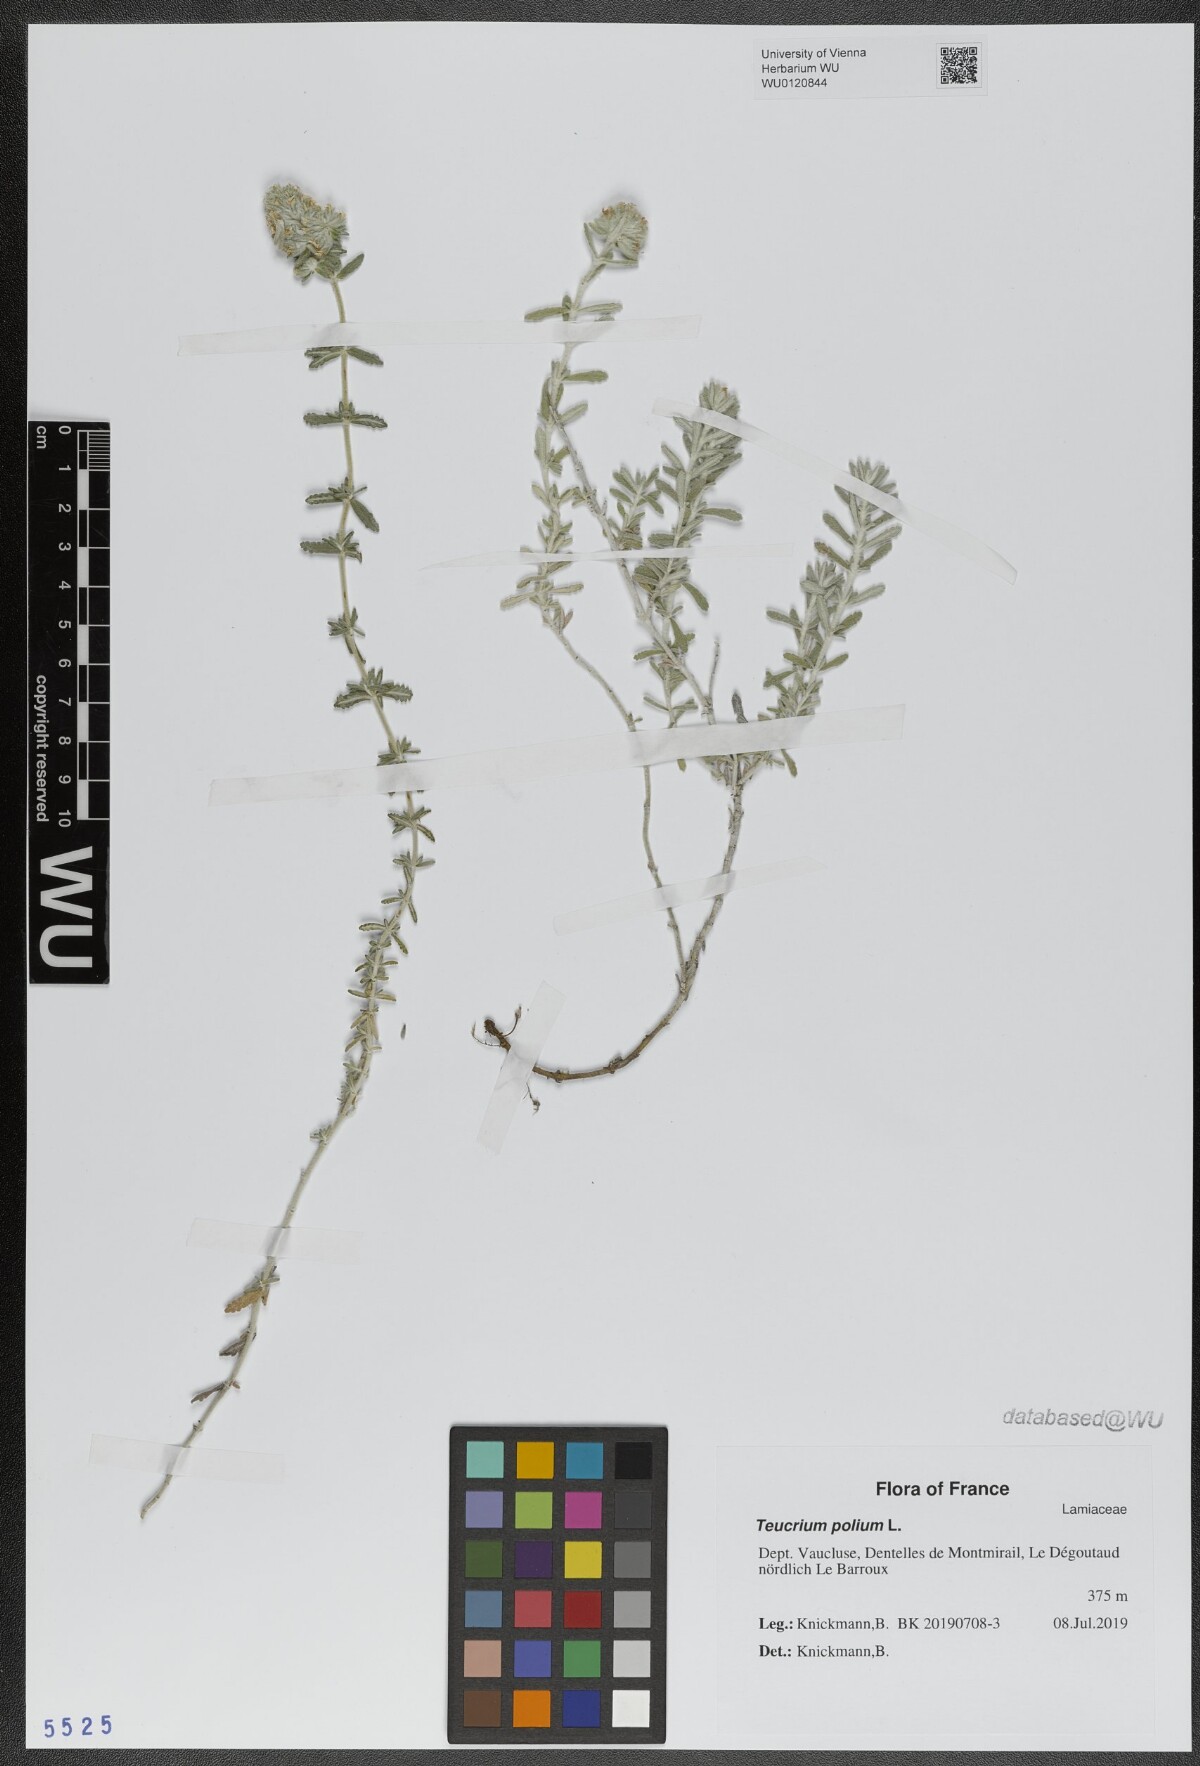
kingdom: Plantae
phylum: Tracheophyta
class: Magnoliopsida
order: Lamiales
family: Lamiaceae
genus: Teucrium
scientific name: Teucrium polium
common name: Poley
